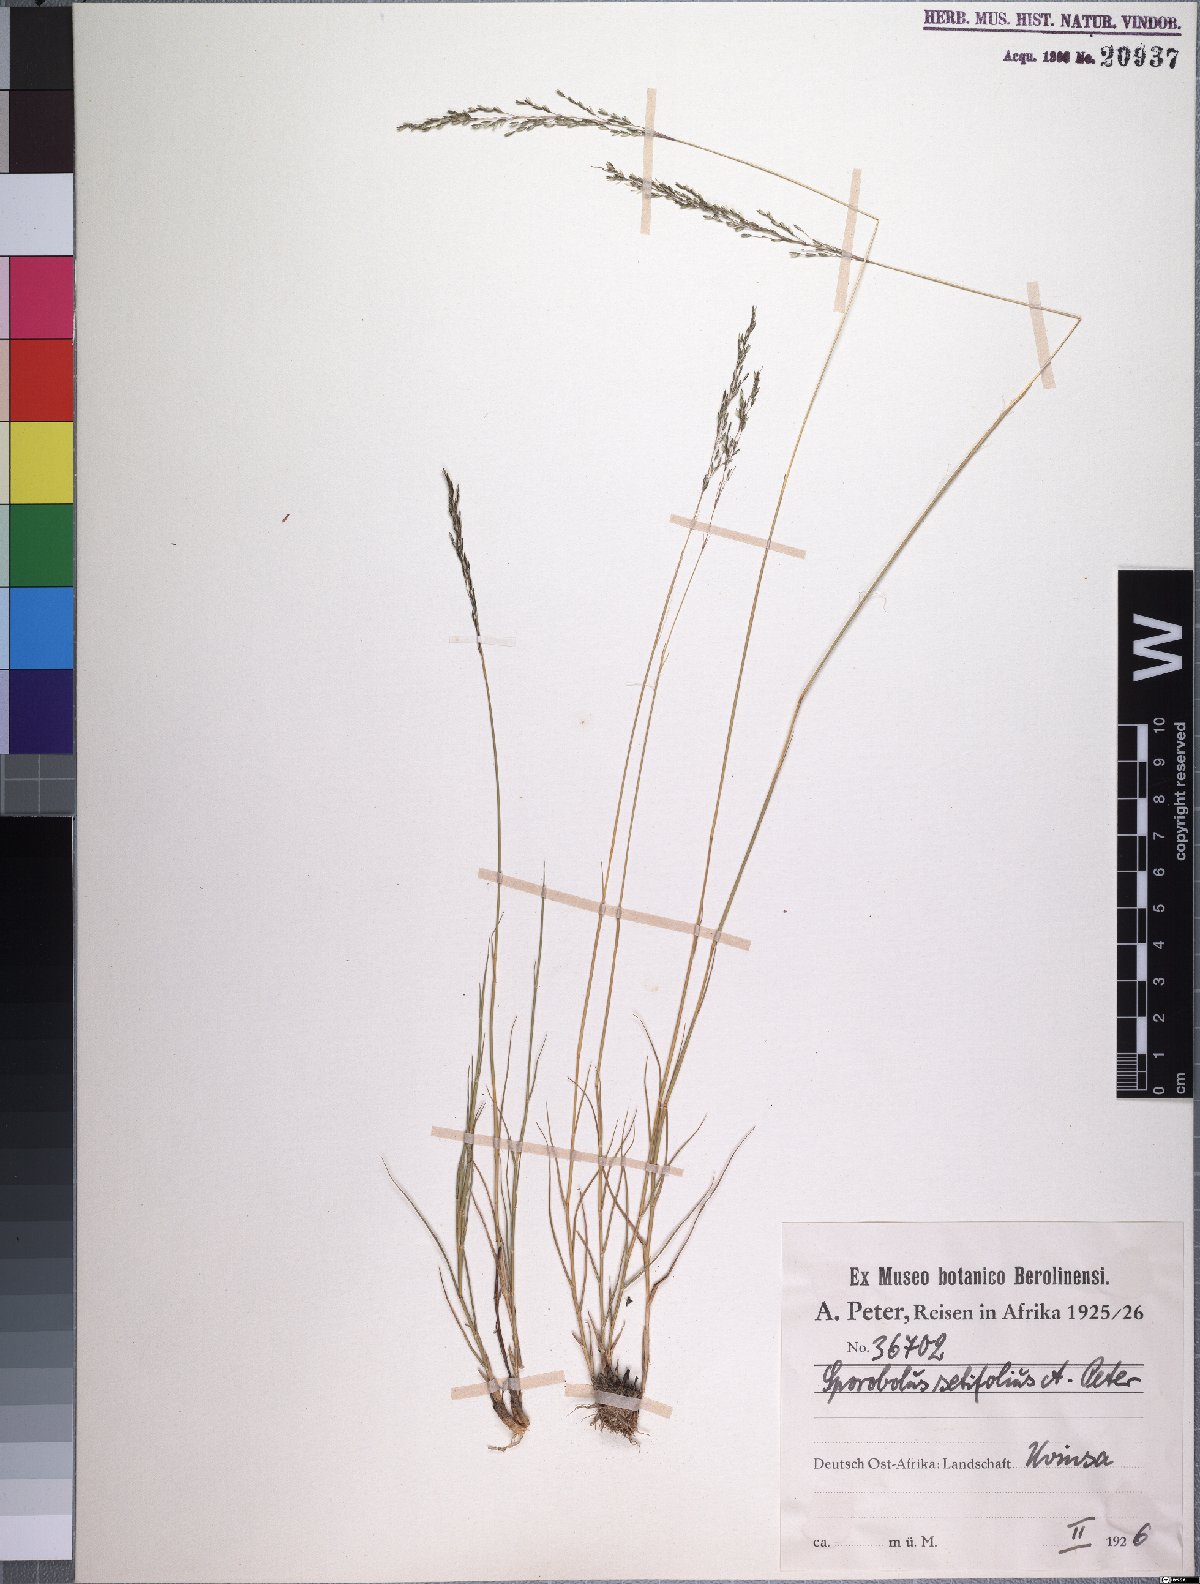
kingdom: Plantae
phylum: Tracheophyta
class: Liliopsida
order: Poales
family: Poaceae
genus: Sporobolus
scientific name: Sporobolus subulatus
